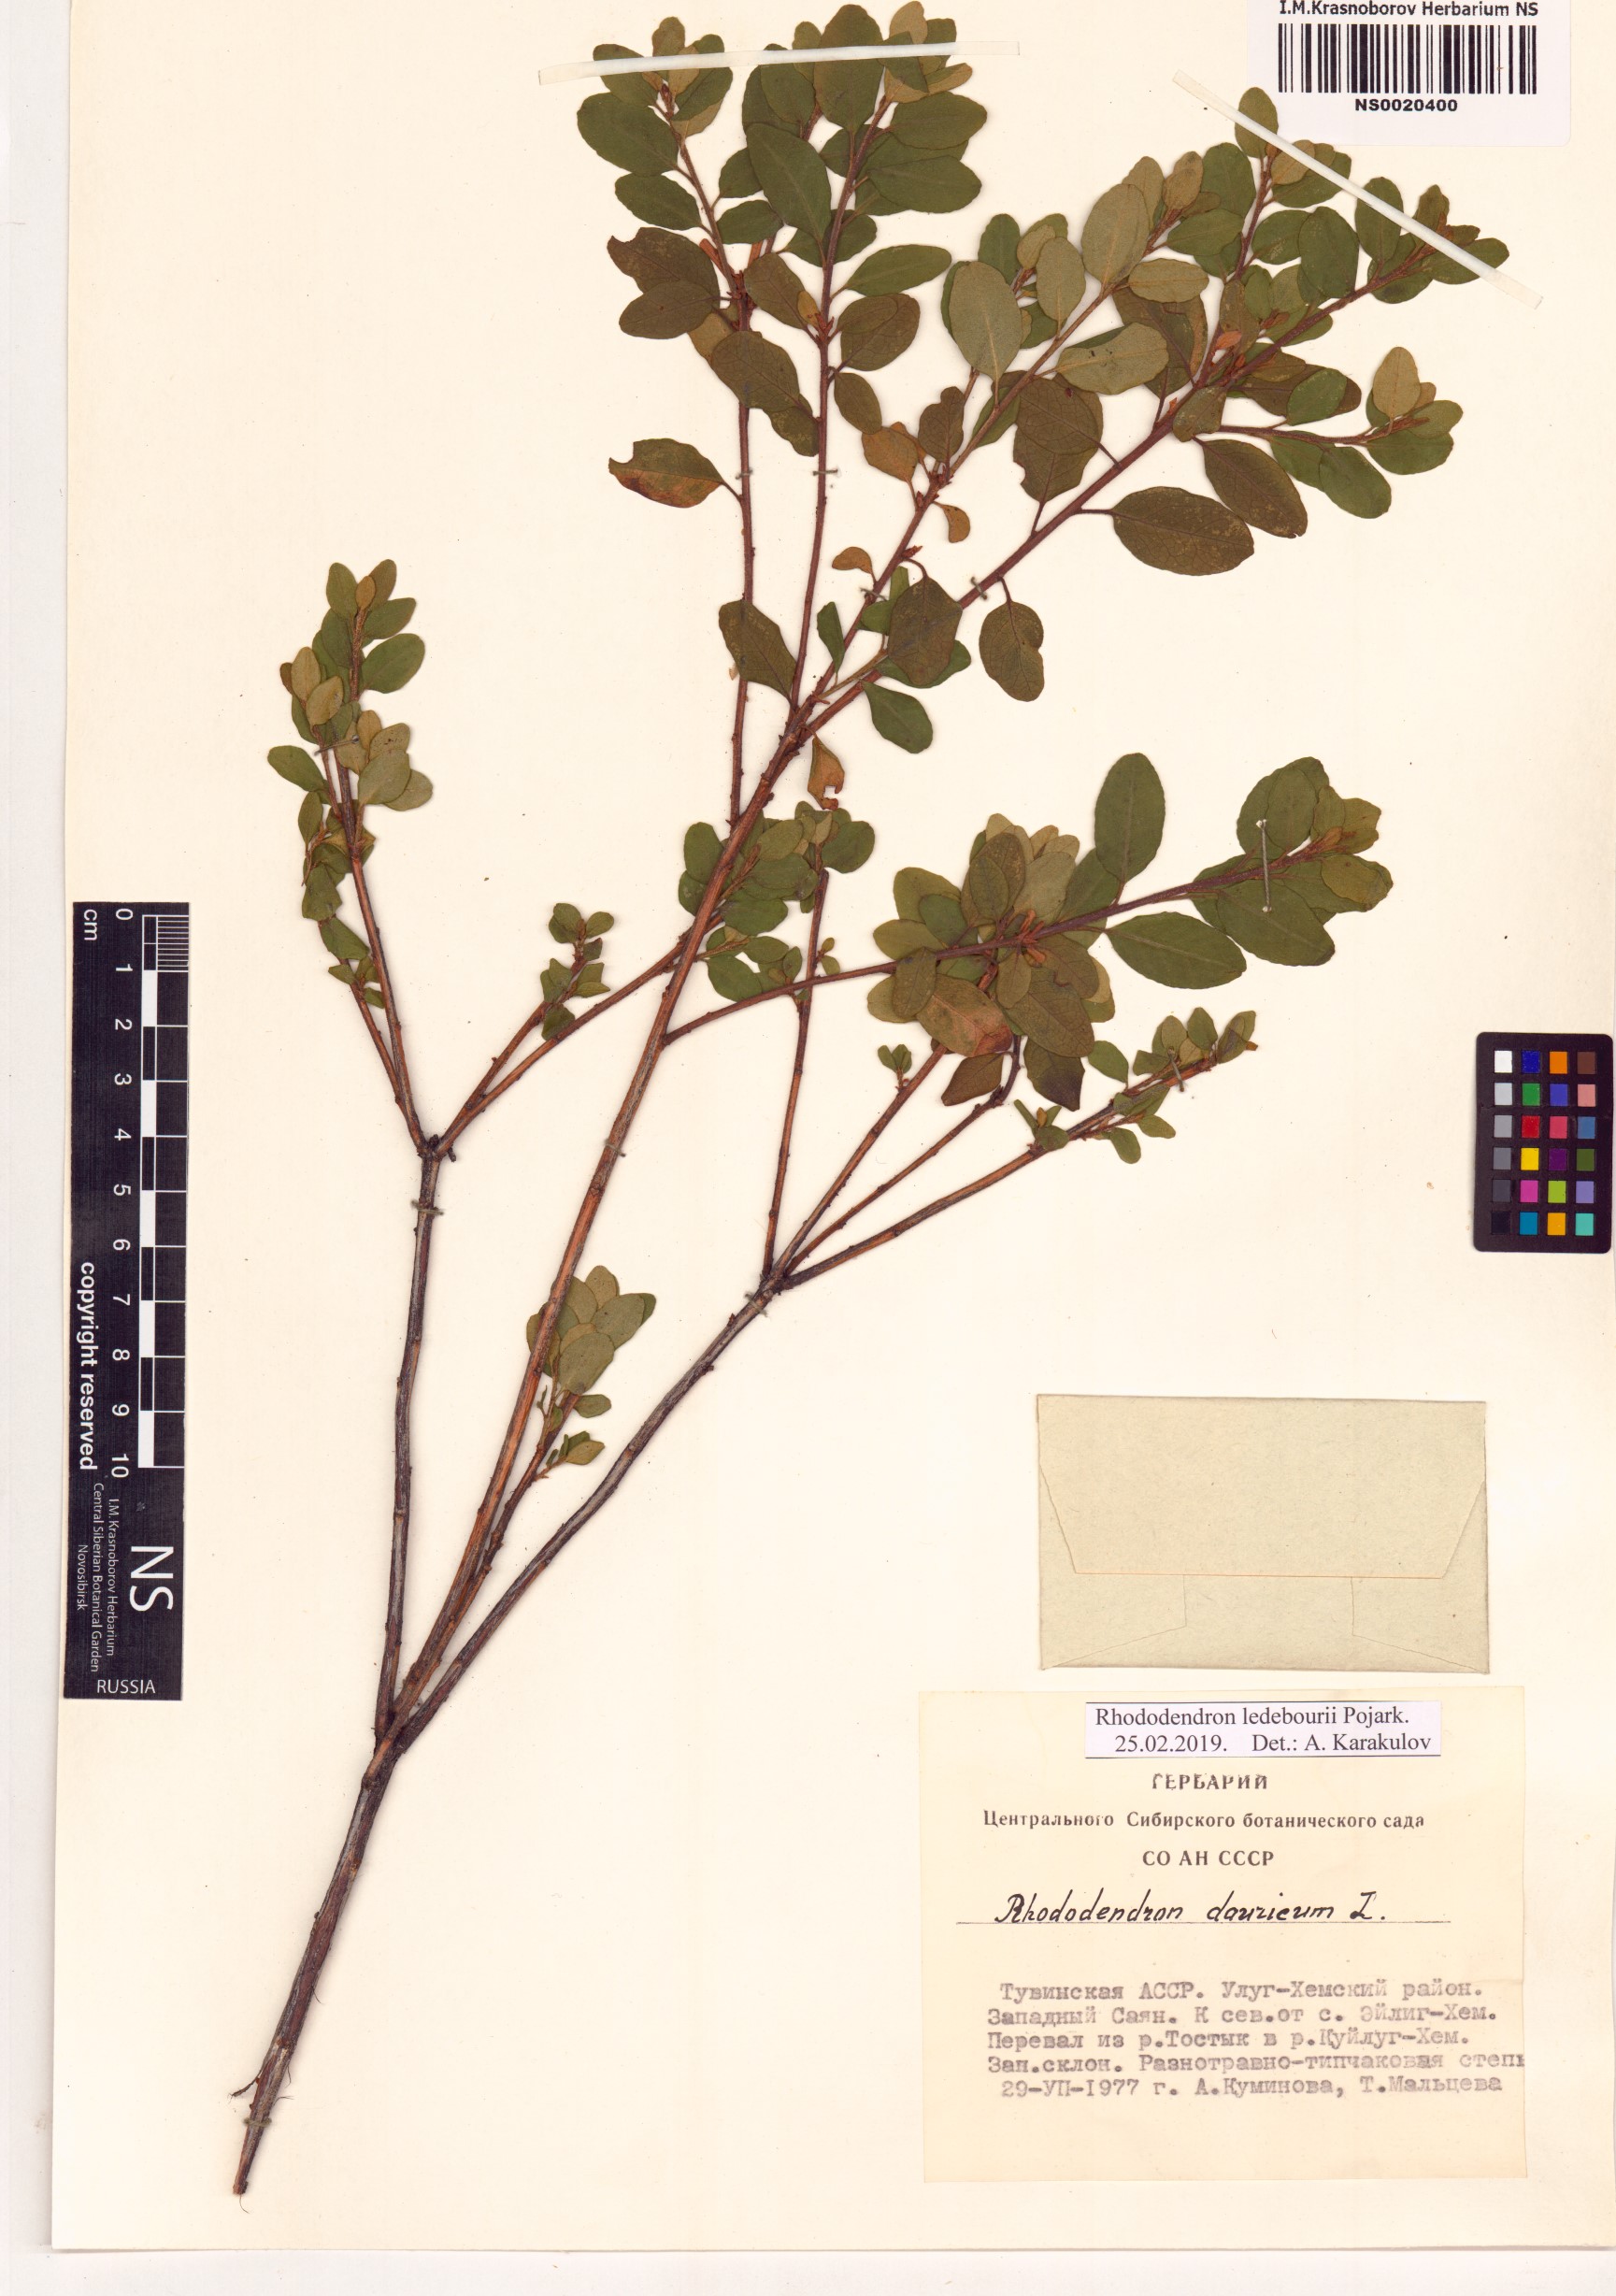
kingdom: Plantae
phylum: Tracheophyta
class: Magnoliopsida
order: Ericales
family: Ericaceae
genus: Rhododendron
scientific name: Rhododendron dauricum
